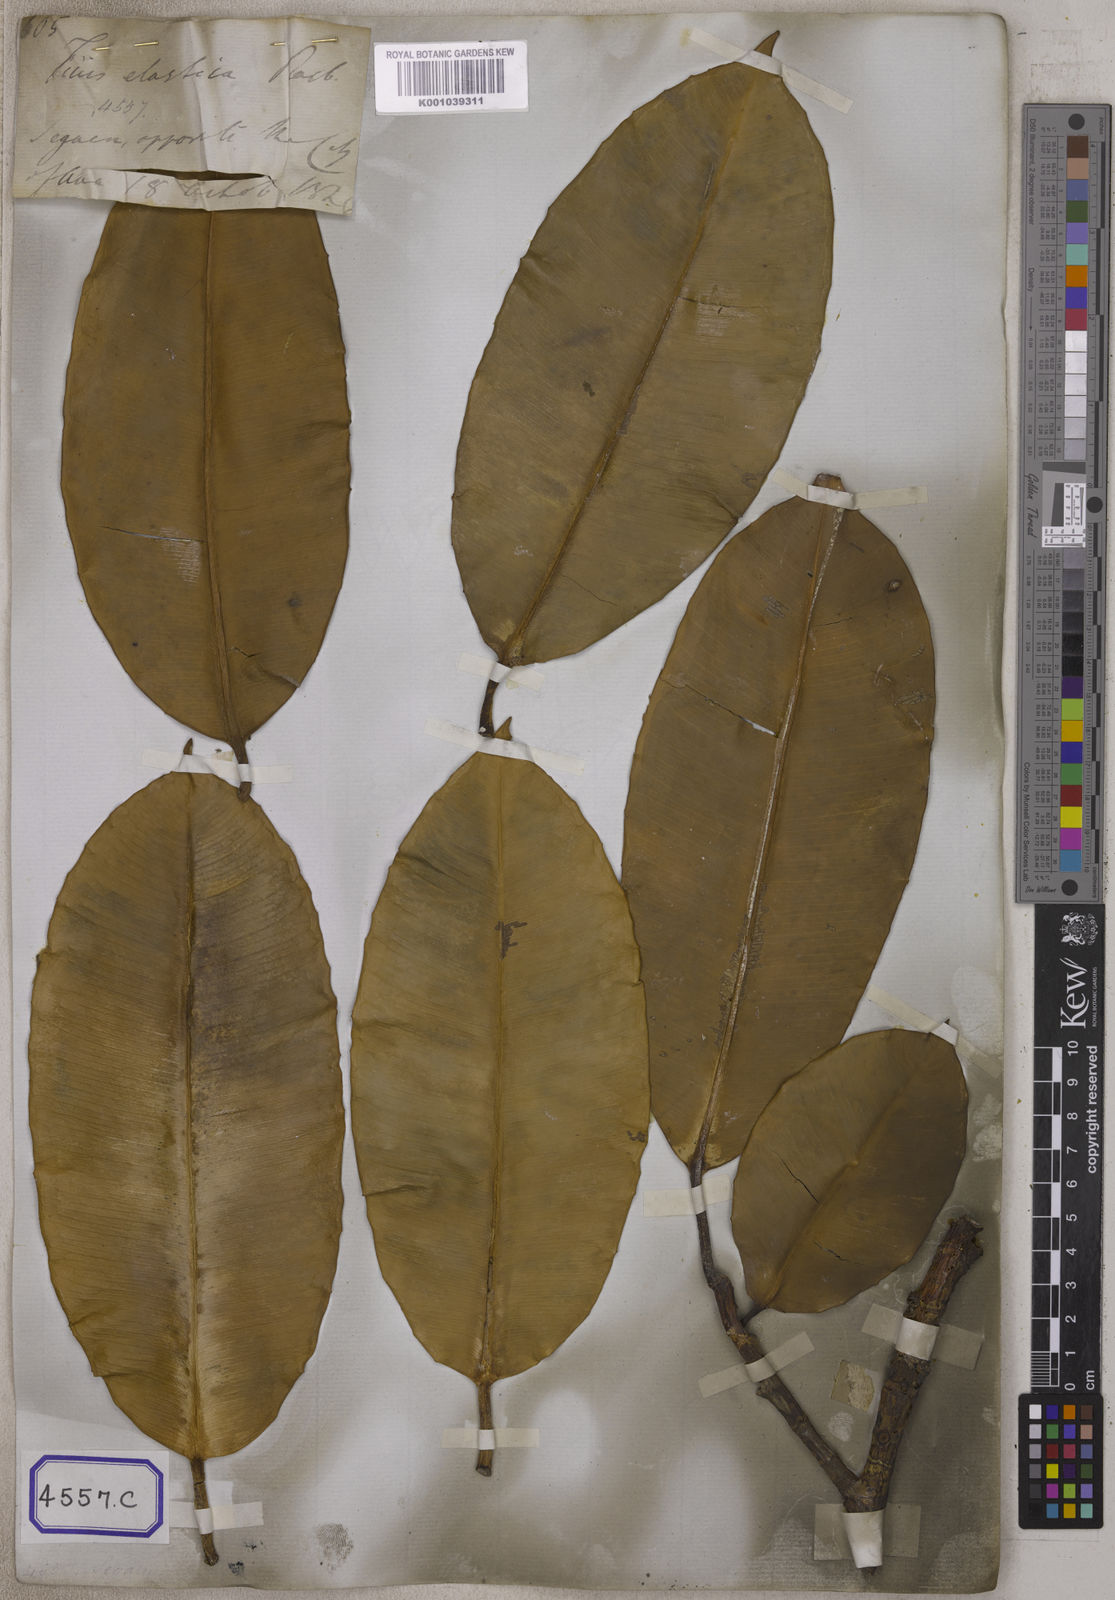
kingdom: Plantae
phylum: Tracheophyta
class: Magnoliopsida
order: Rosales
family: Moraceae
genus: Ficus
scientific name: Ficus
